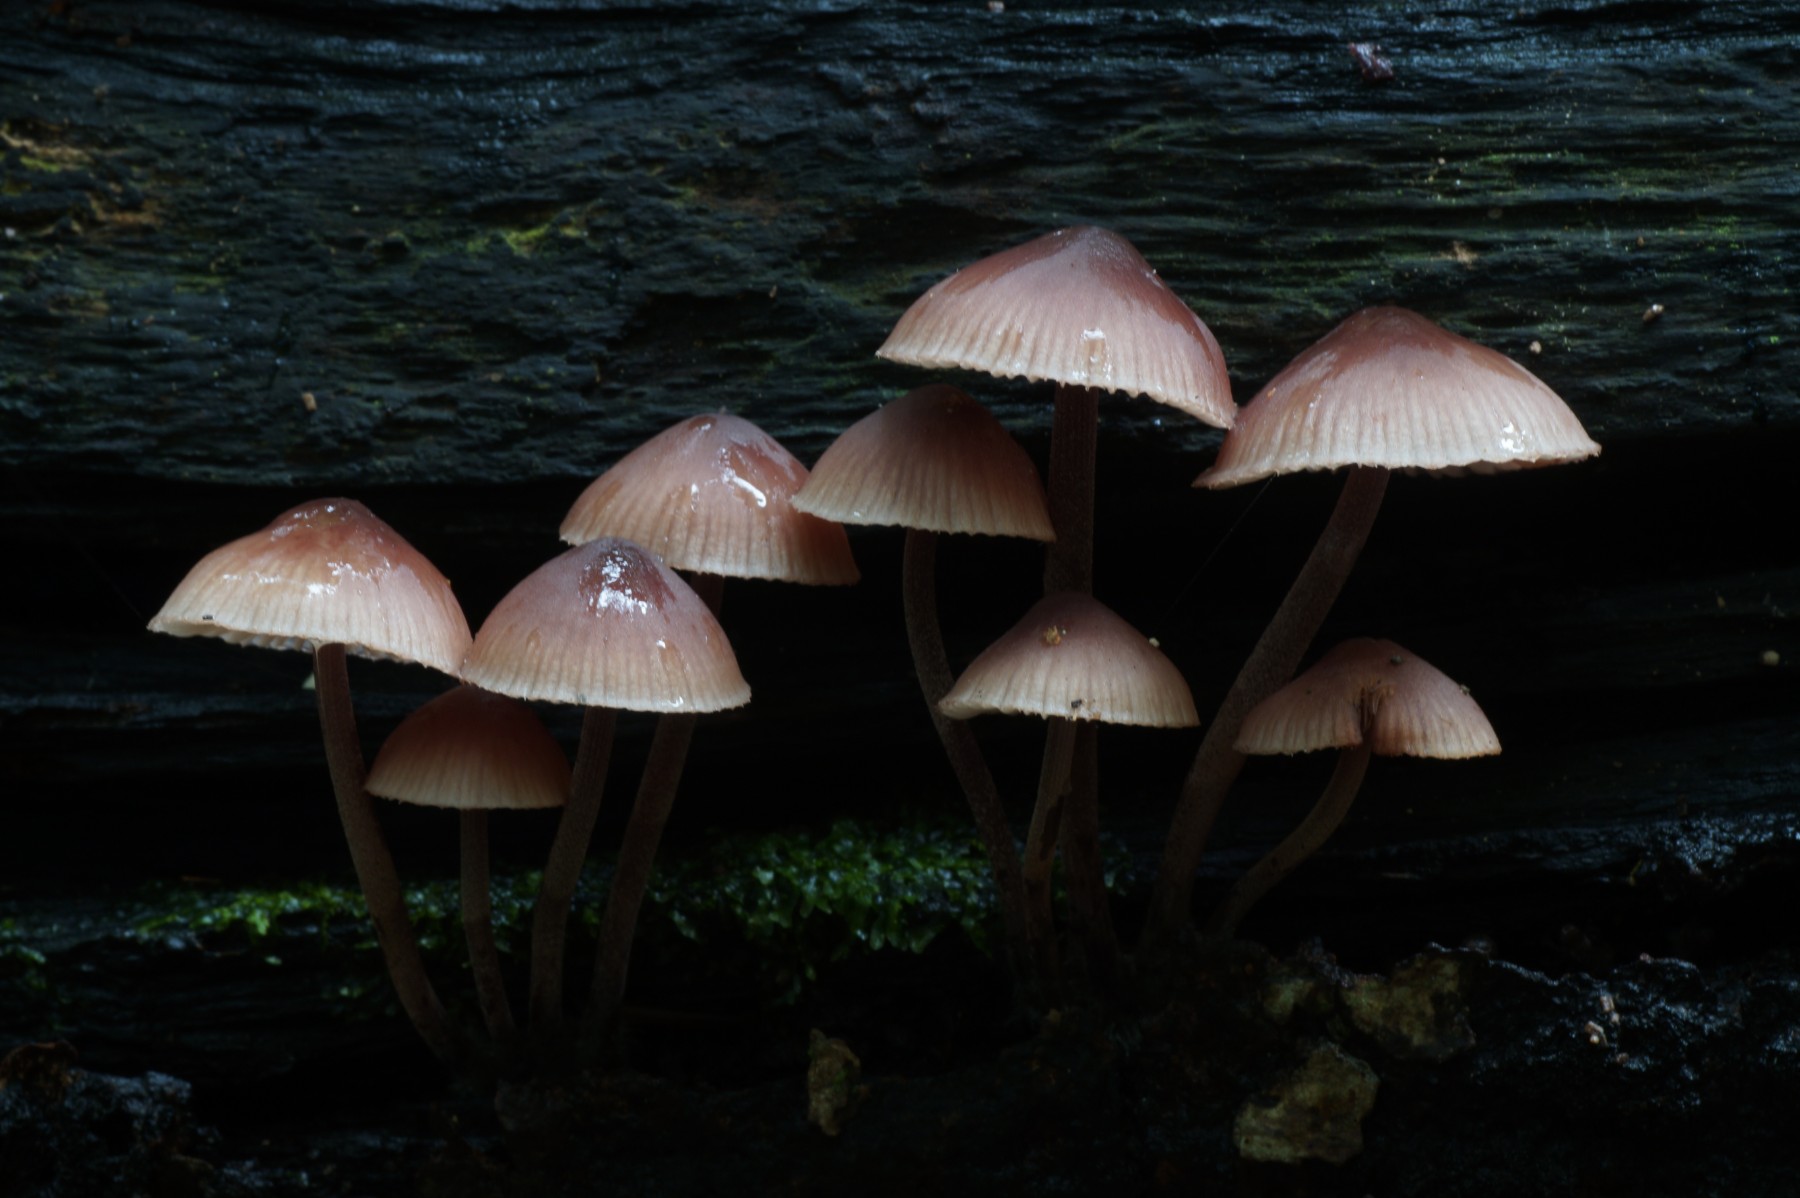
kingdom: Fungi
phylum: Basidiomycota
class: Agaricomycetes
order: Agaricales
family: Mycenaceae
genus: Mycena
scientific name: Mycena haematopus
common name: blødende huesvamp
